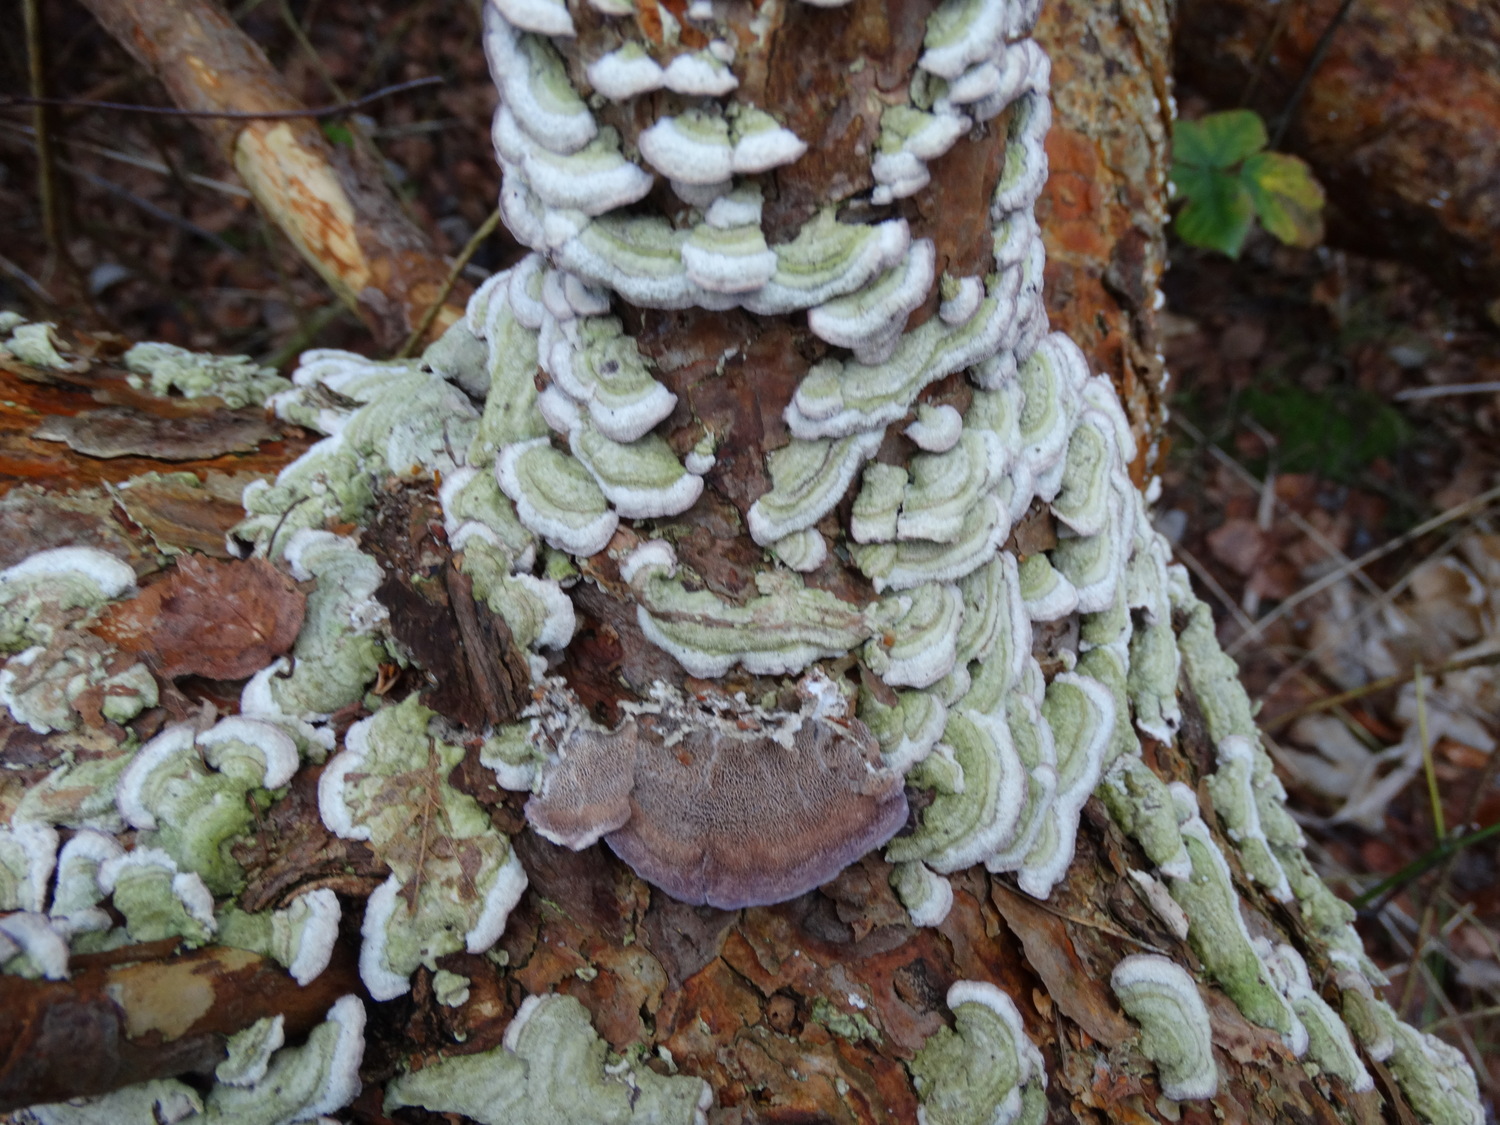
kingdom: Fungi
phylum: Basidiomycota
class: Agaricomycetes
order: Hymenochaetales
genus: Trichaptum
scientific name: Trichaptum abietinum
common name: almindelig violporesvamp
